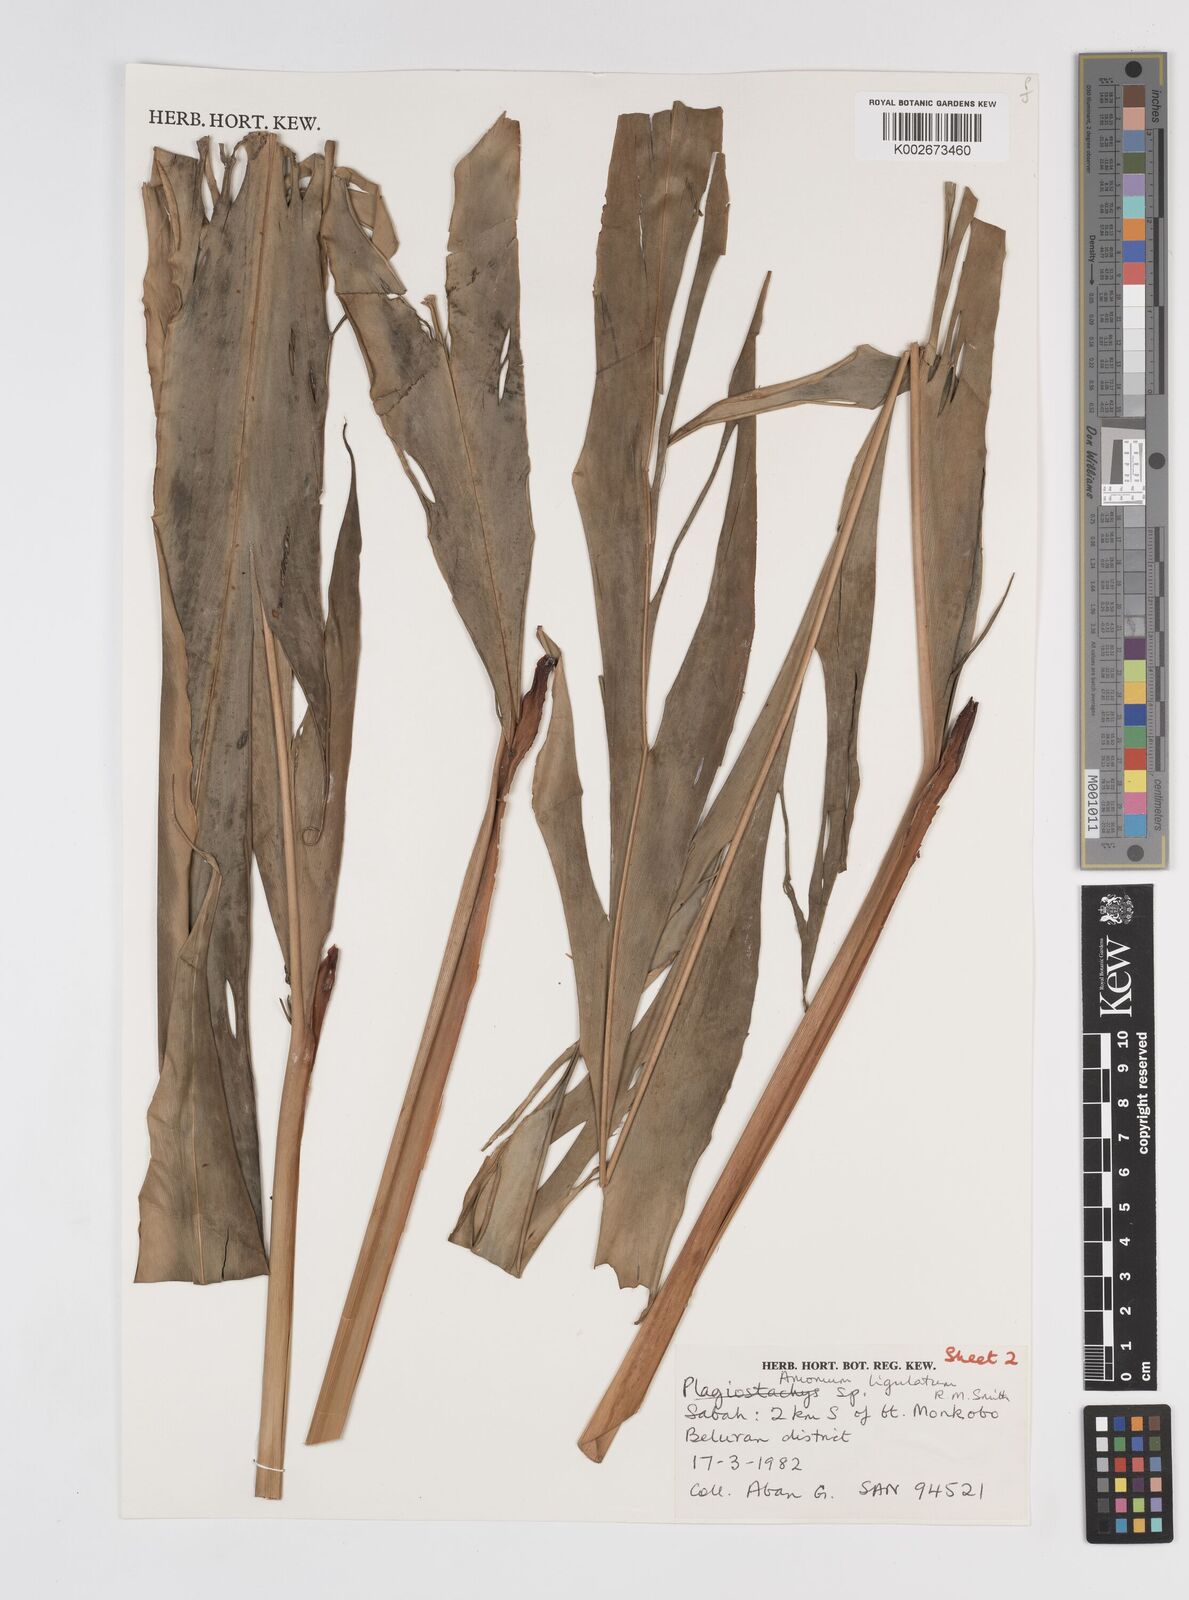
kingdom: Plantae
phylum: Tracheophyta
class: Liliopsida
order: Zingiberales
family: Zingiberaceae
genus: Sulettaria
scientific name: Sulettaria ligulata
